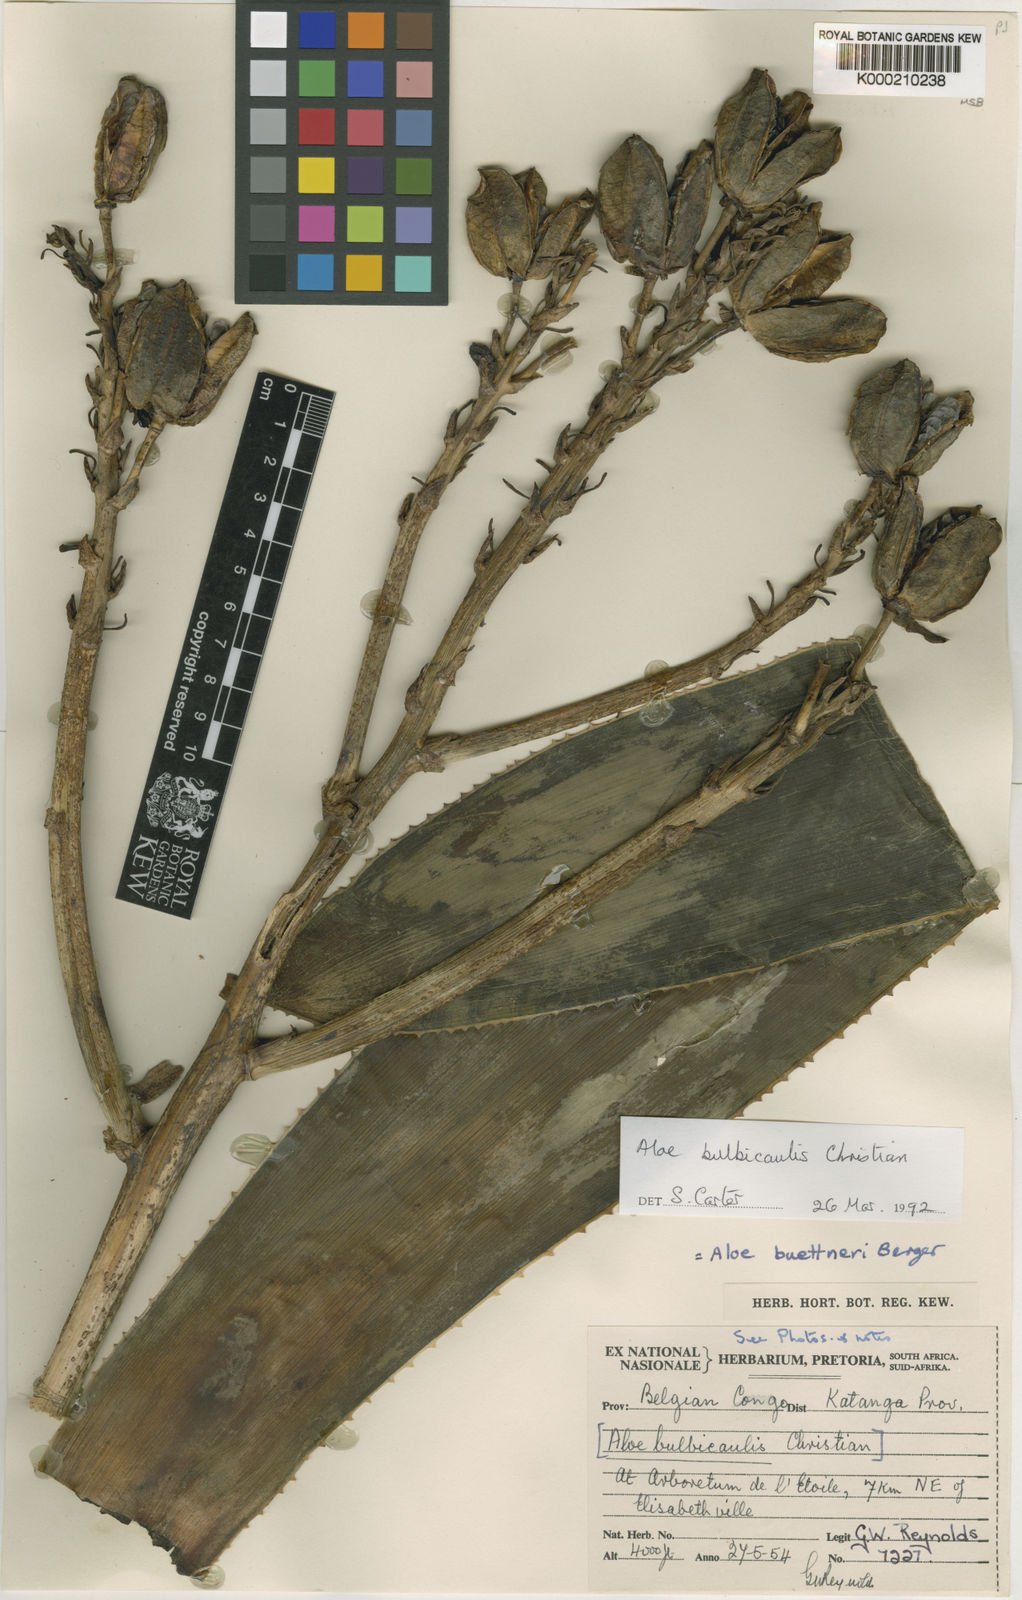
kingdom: Plantae
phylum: Tracheophyta
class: Liliopsida
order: Asparagales
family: Asphodelaceae
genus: Aloe
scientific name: Aloe bulbicaulis
